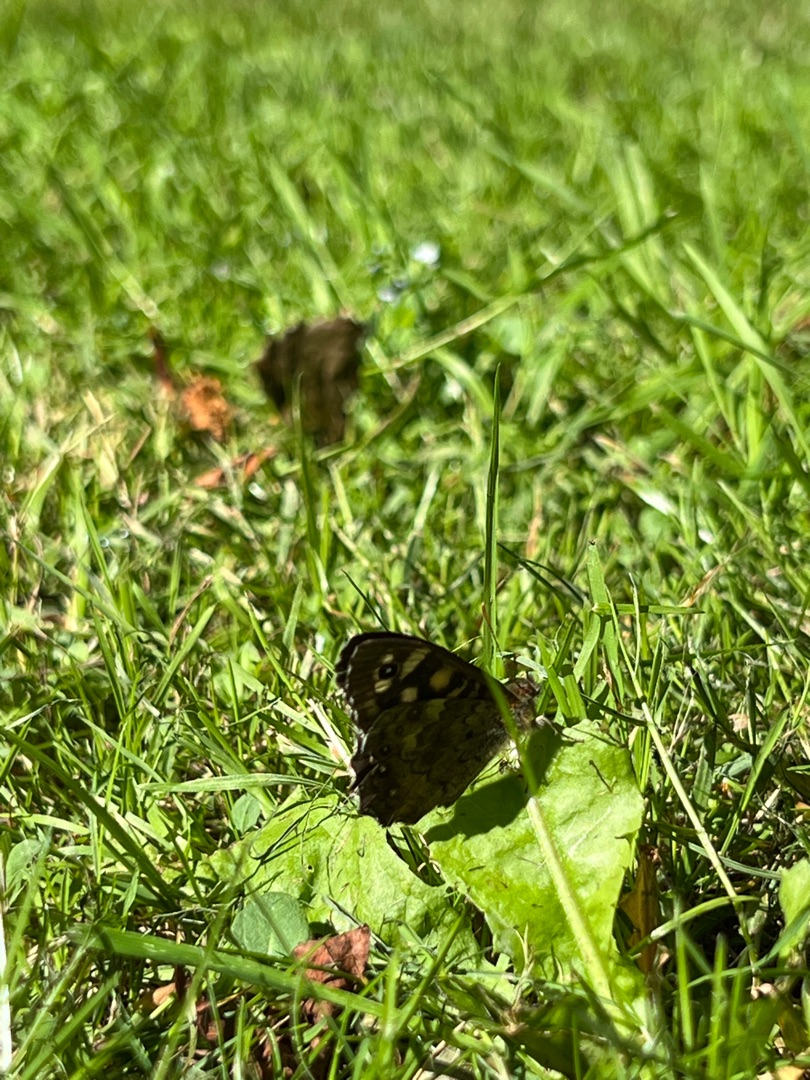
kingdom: Animalia
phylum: Arthropoda
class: Insecta
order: Lepidoptera
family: Nymphalidae
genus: Pararge
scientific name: Pararge aegeria
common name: Skovrandøje
